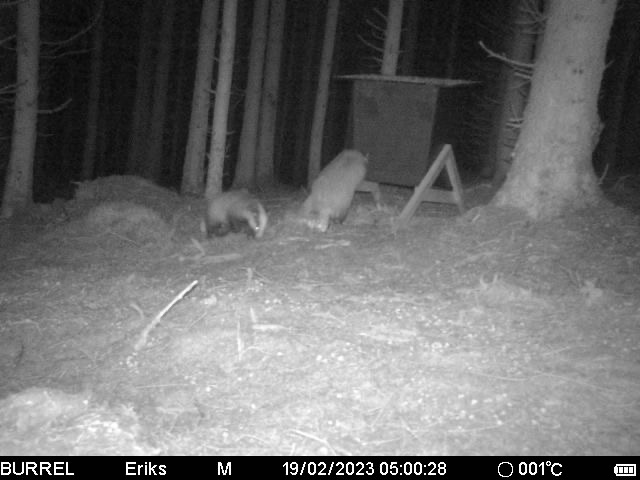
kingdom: Animalia
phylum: Chordata
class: Mammalia
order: Carnivora
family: Mustelidae
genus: Meles
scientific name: Meles meles
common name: Grævling
